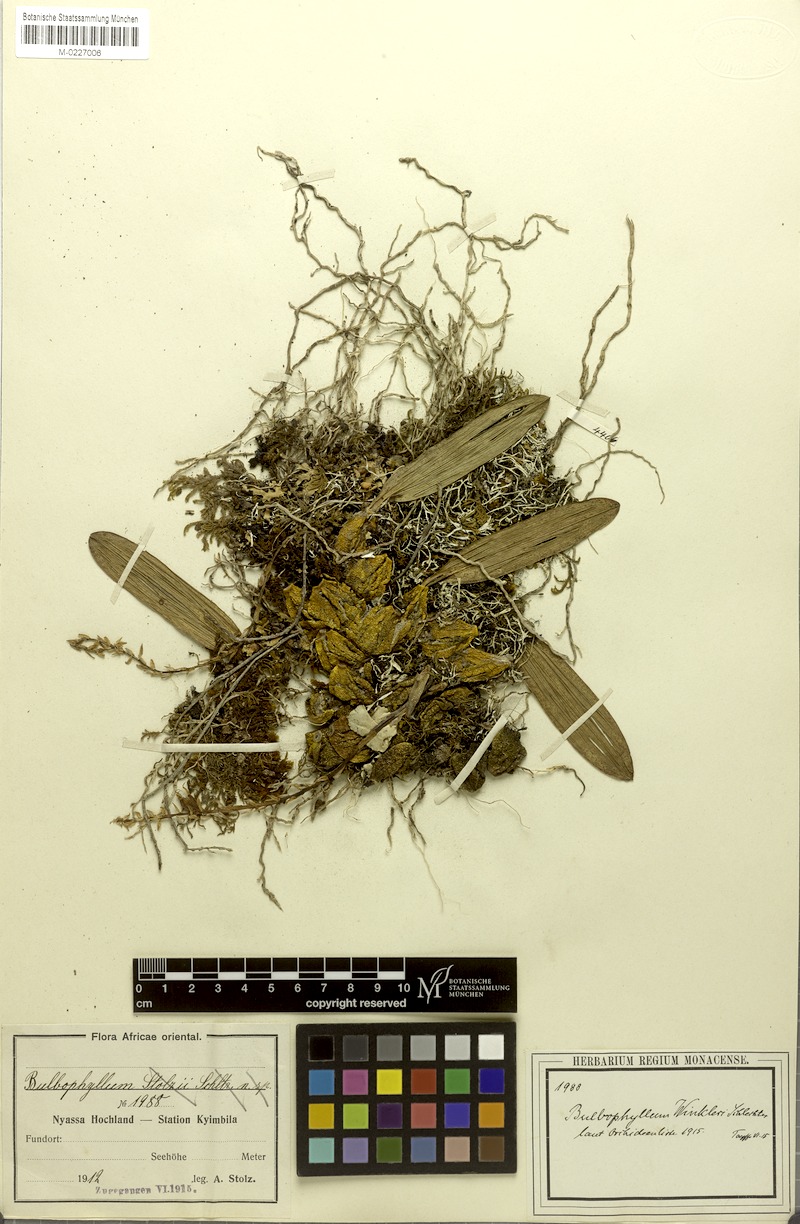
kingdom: Plantae
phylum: Tracheophyta
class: Liliopsida
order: Asparagales
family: Orchidaceae
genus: Bulbophyllum
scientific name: Bulbophyllum josephi
